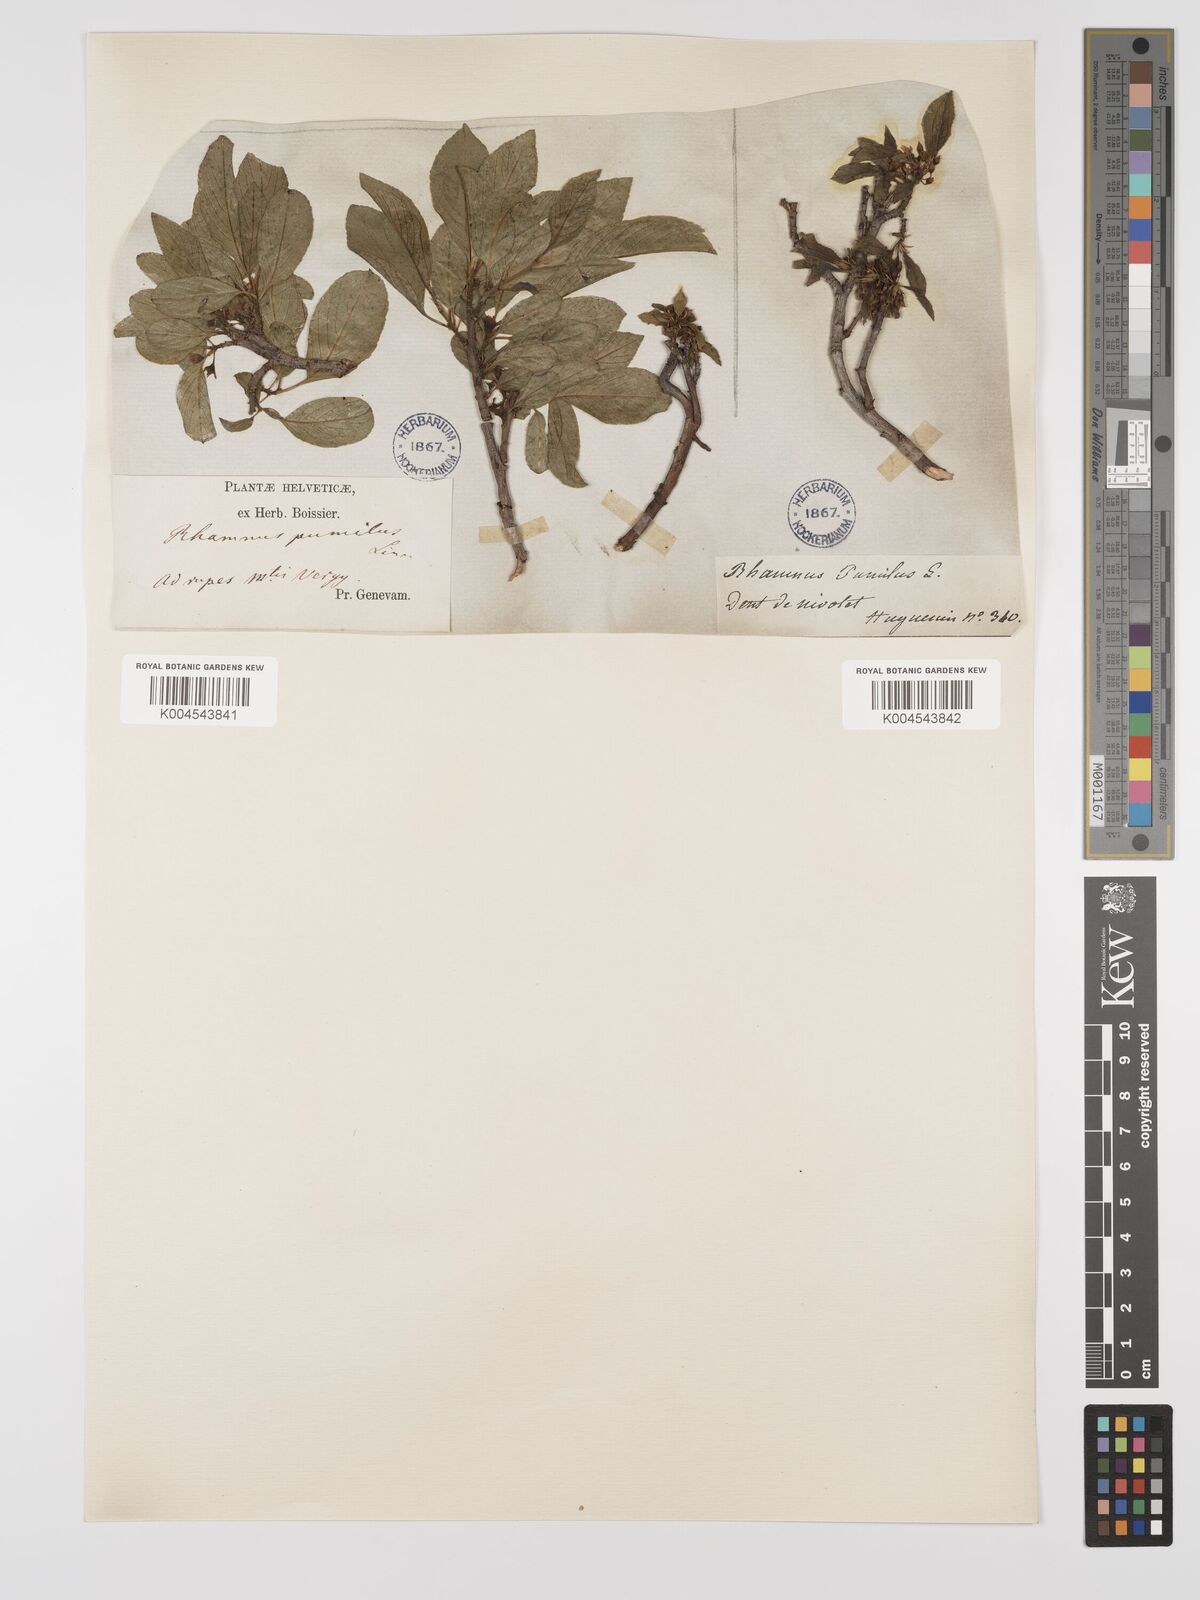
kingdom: Plantae
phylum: Tracheophyta
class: Magnoliopsida
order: Rosales
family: Rhamnaceae
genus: Rhamnus
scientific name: Rhamnus
